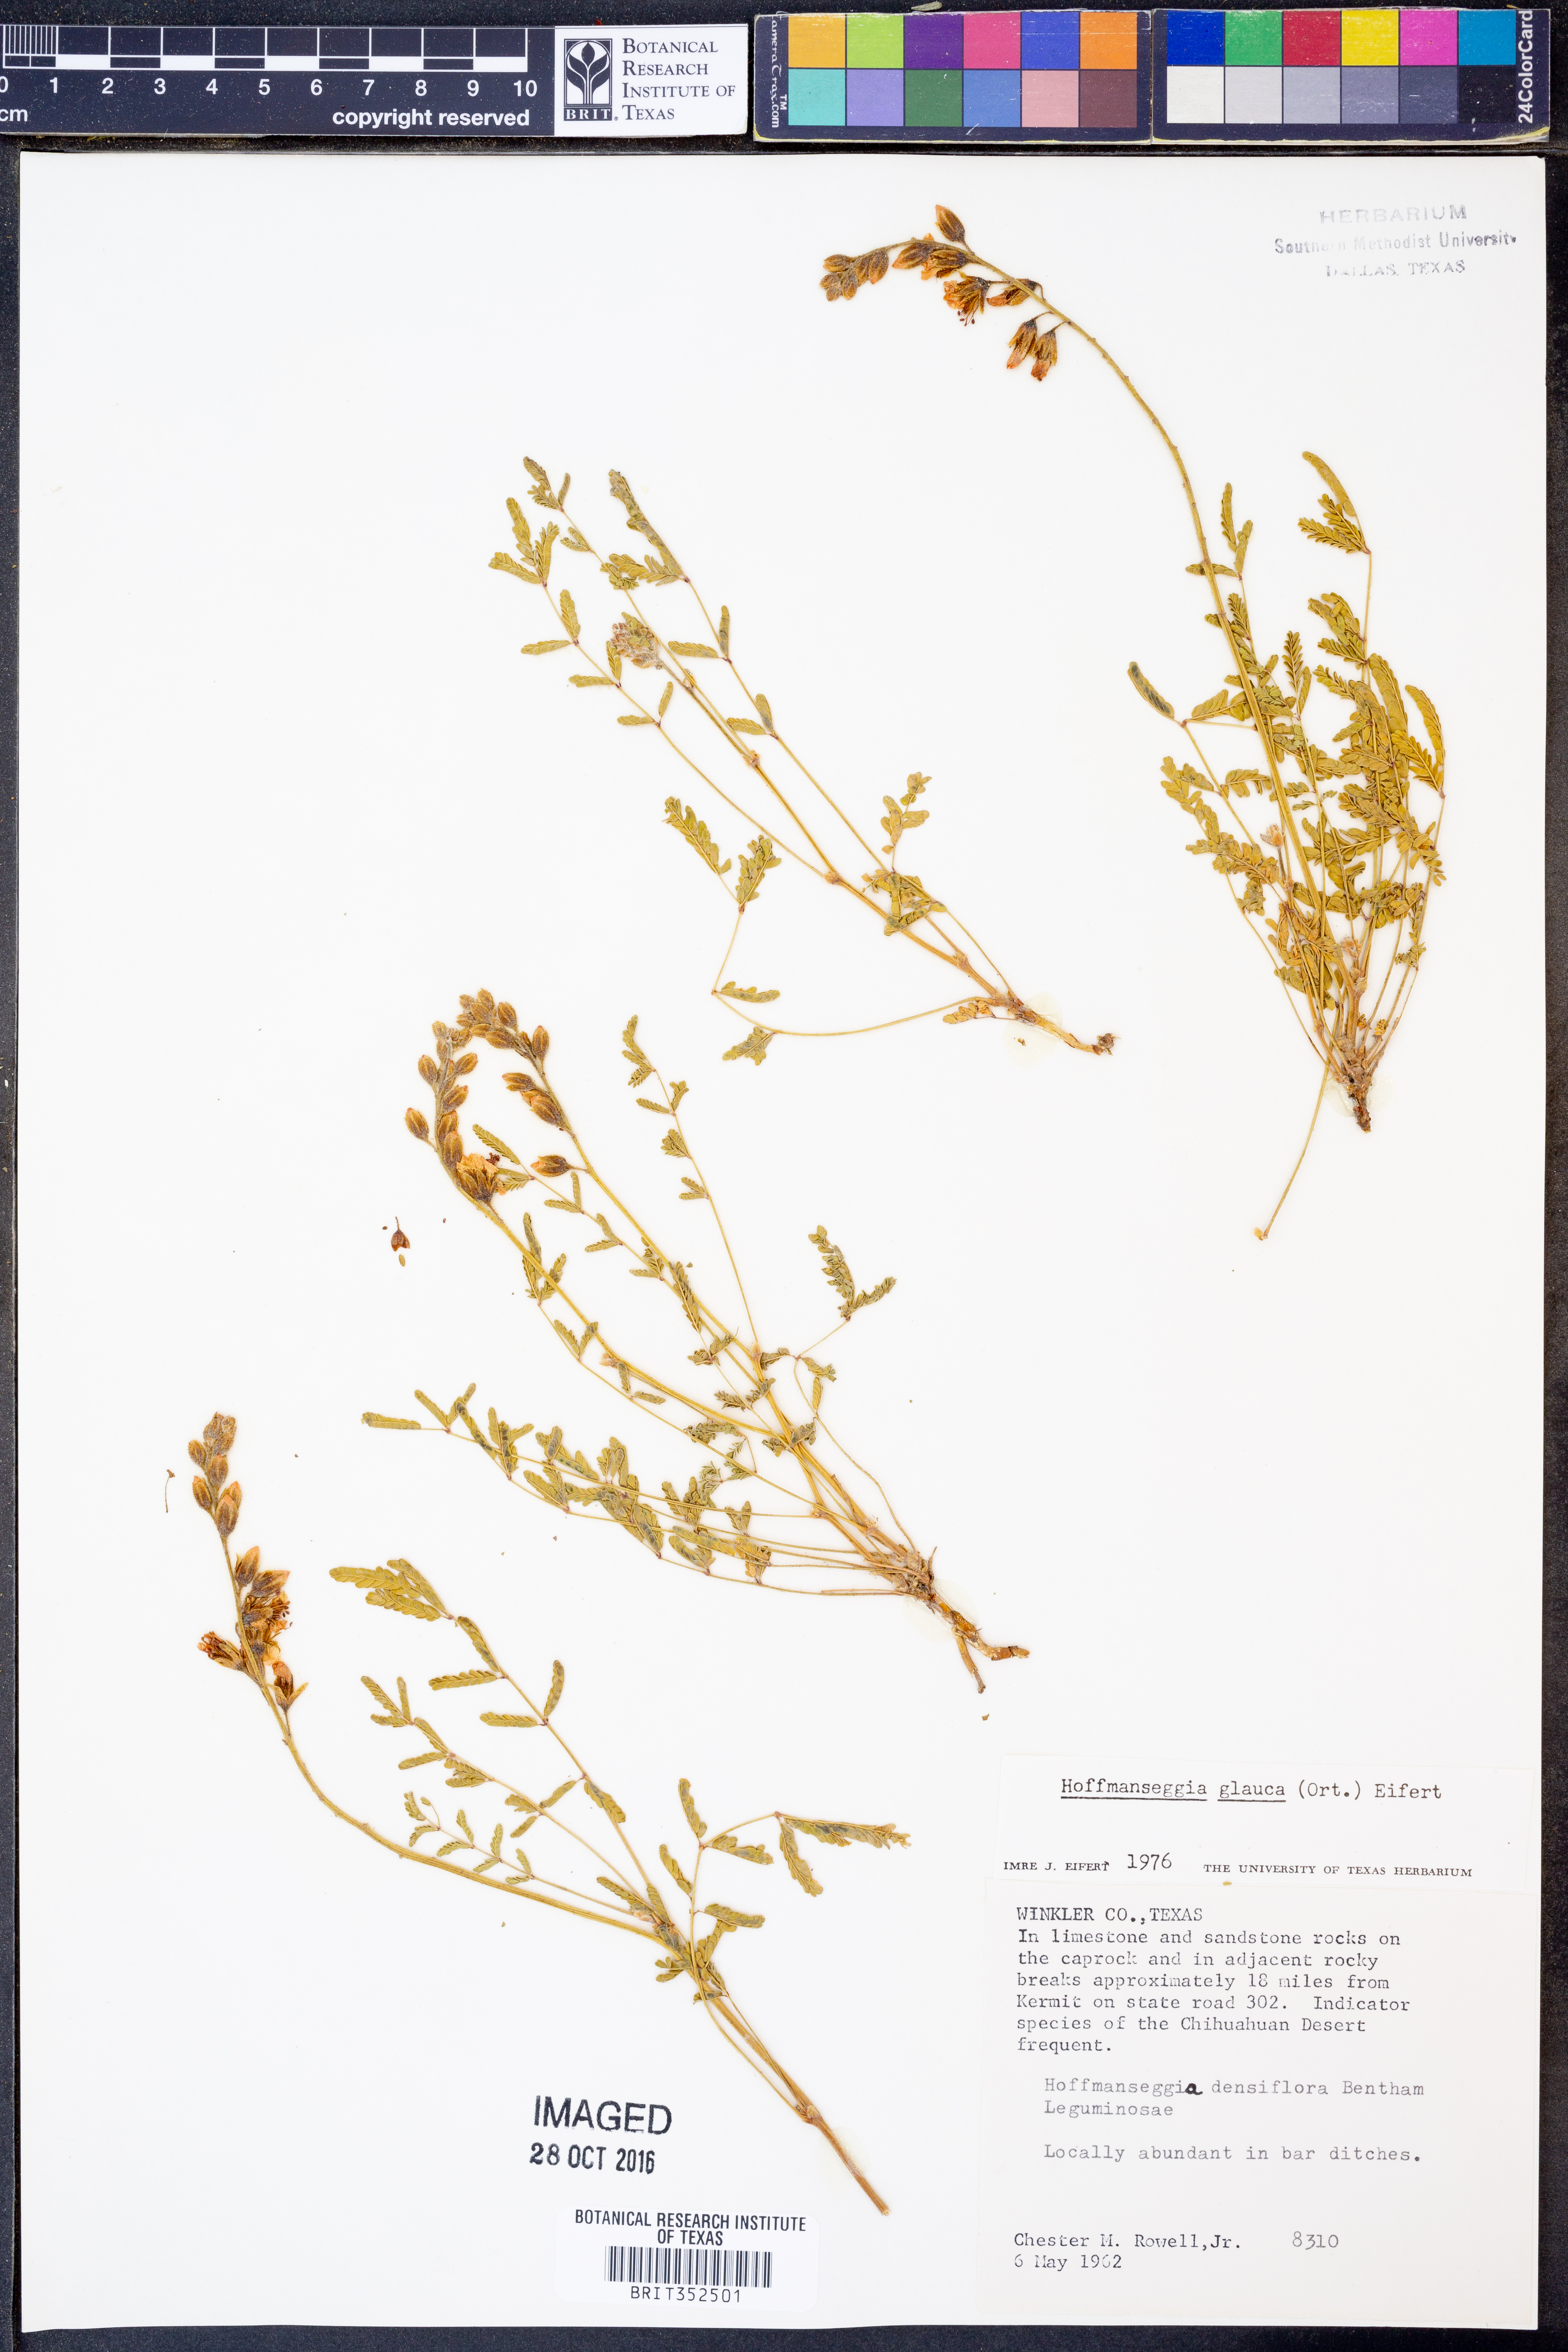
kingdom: Plantae
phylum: Tracheophyta
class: Magnoliopsida
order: Fabales
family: Fabaceae
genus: Hoffmannseggia
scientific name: Hoffmannseggia glauca
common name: Pignut
